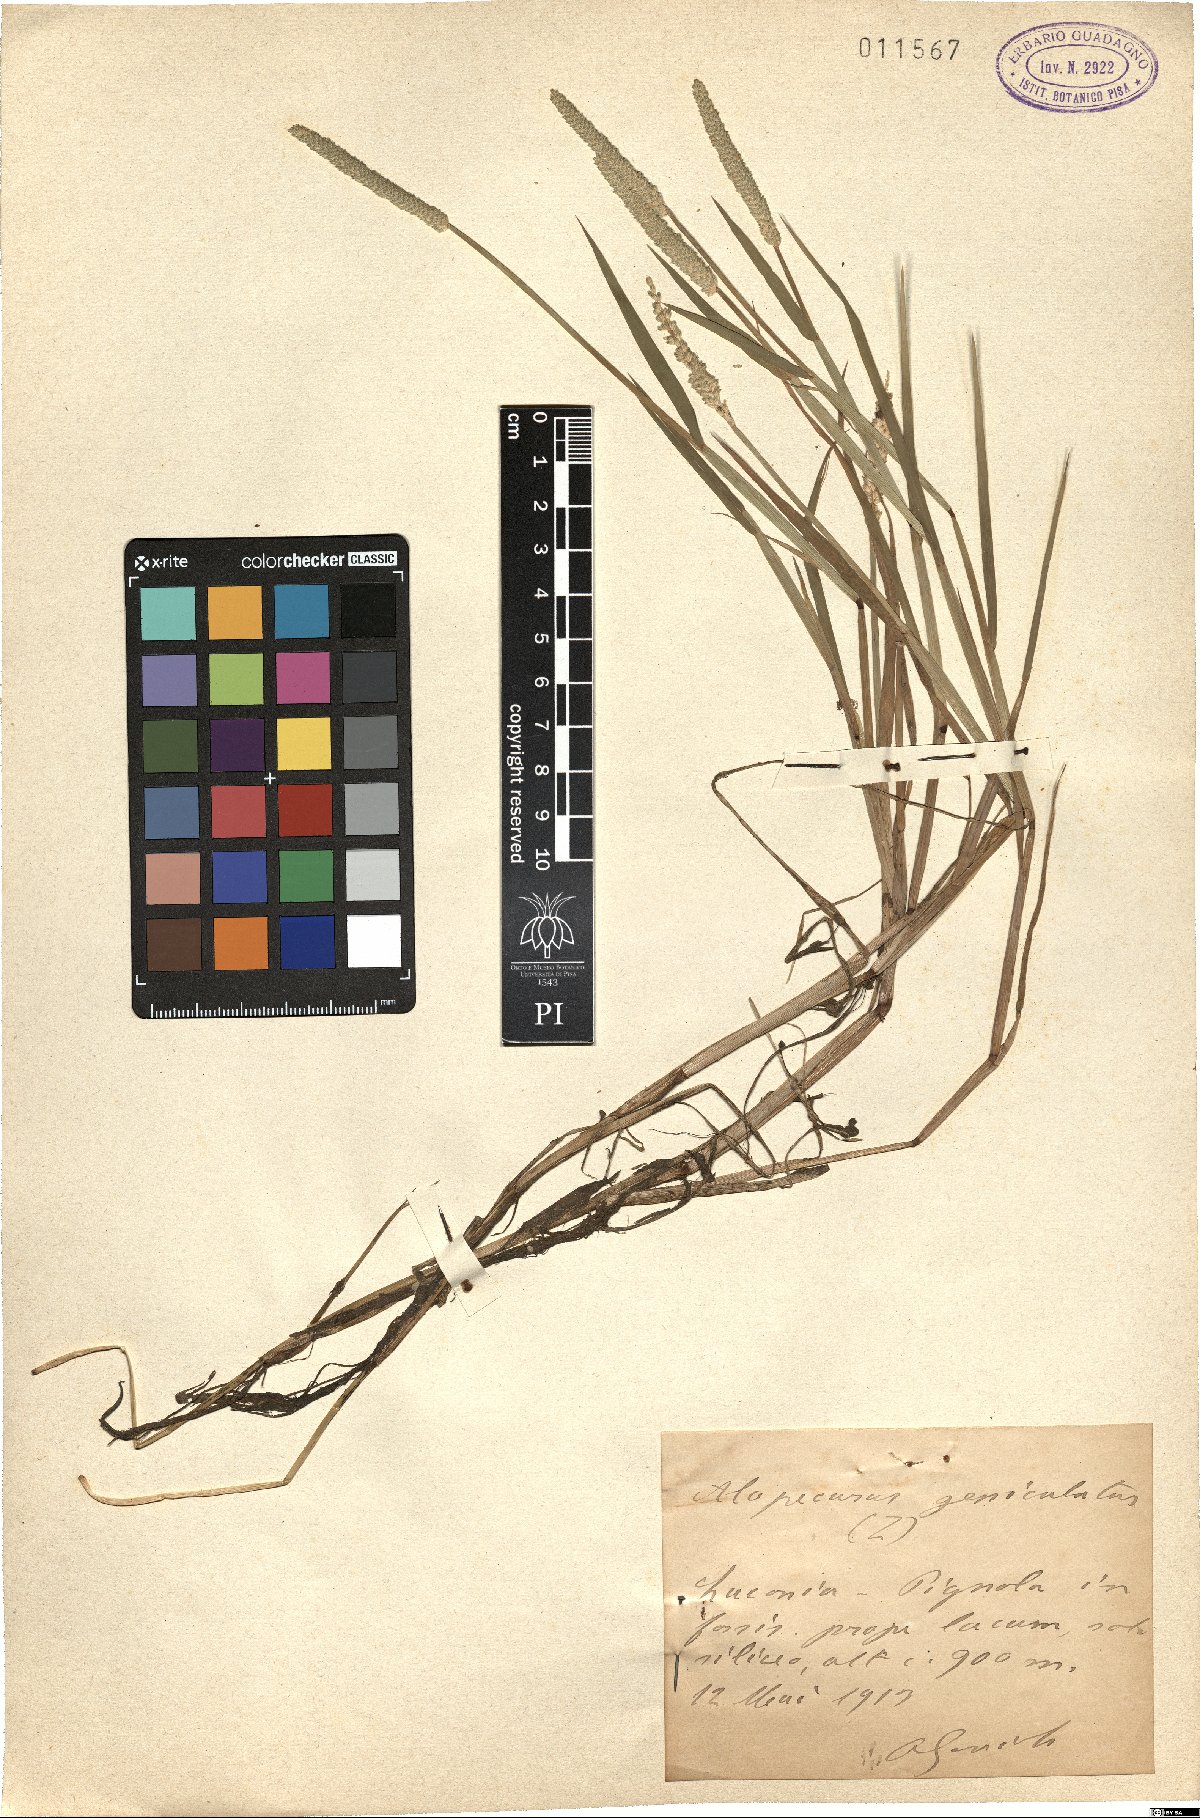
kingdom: Plantae
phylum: Tracheophyta
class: Liliopsida
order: Poales
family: Poaceae
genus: Alopecurus
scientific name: Alopecurus aequalis
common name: Orange foxtail
